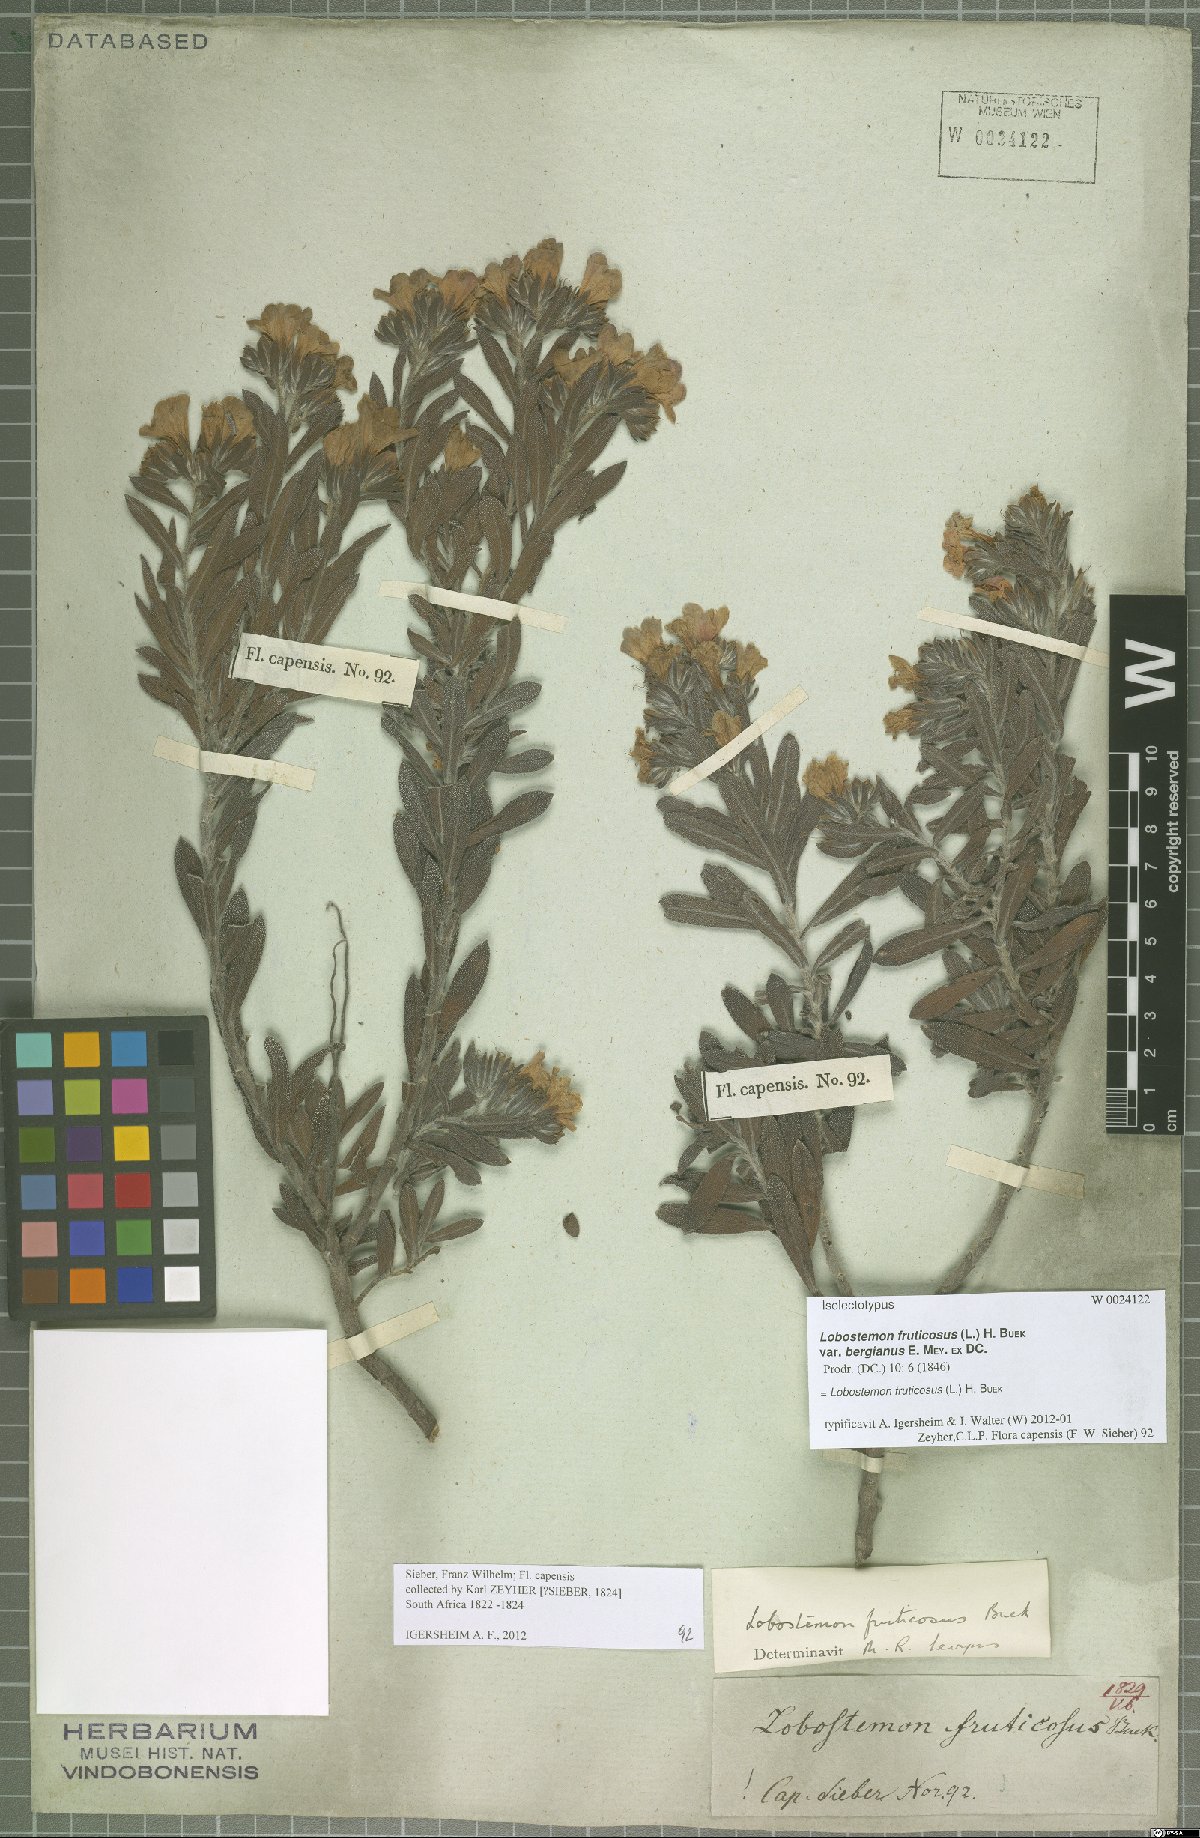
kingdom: Plantae
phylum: Tracheophyta
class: Magnoliopsida
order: Boraginales
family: Boraginaceae
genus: Lobostemon
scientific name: Lobostemon fruticosus
